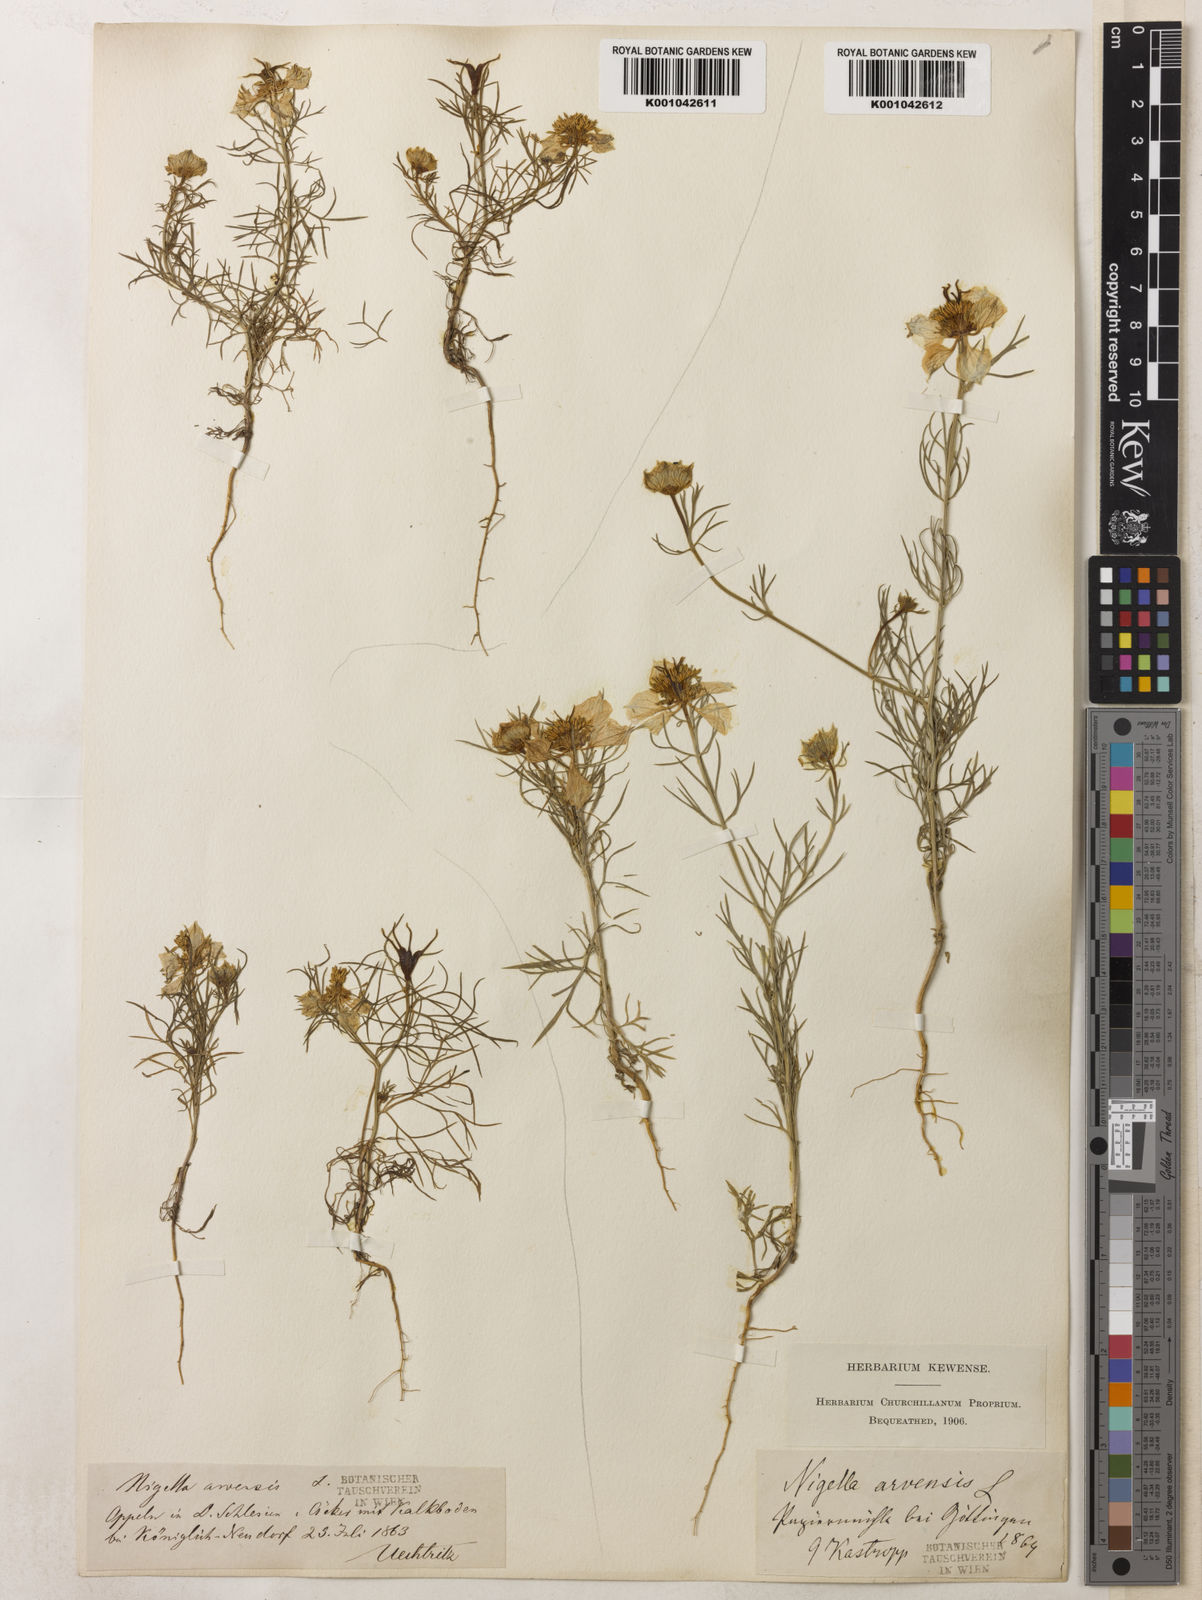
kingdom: Plantae
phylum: Tracheophyta
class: Magnoliopsida
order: Ranunculales
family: Ranunculaceae
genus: Nigella
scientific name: Nigella arvensis
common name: Wild fennel-flower
